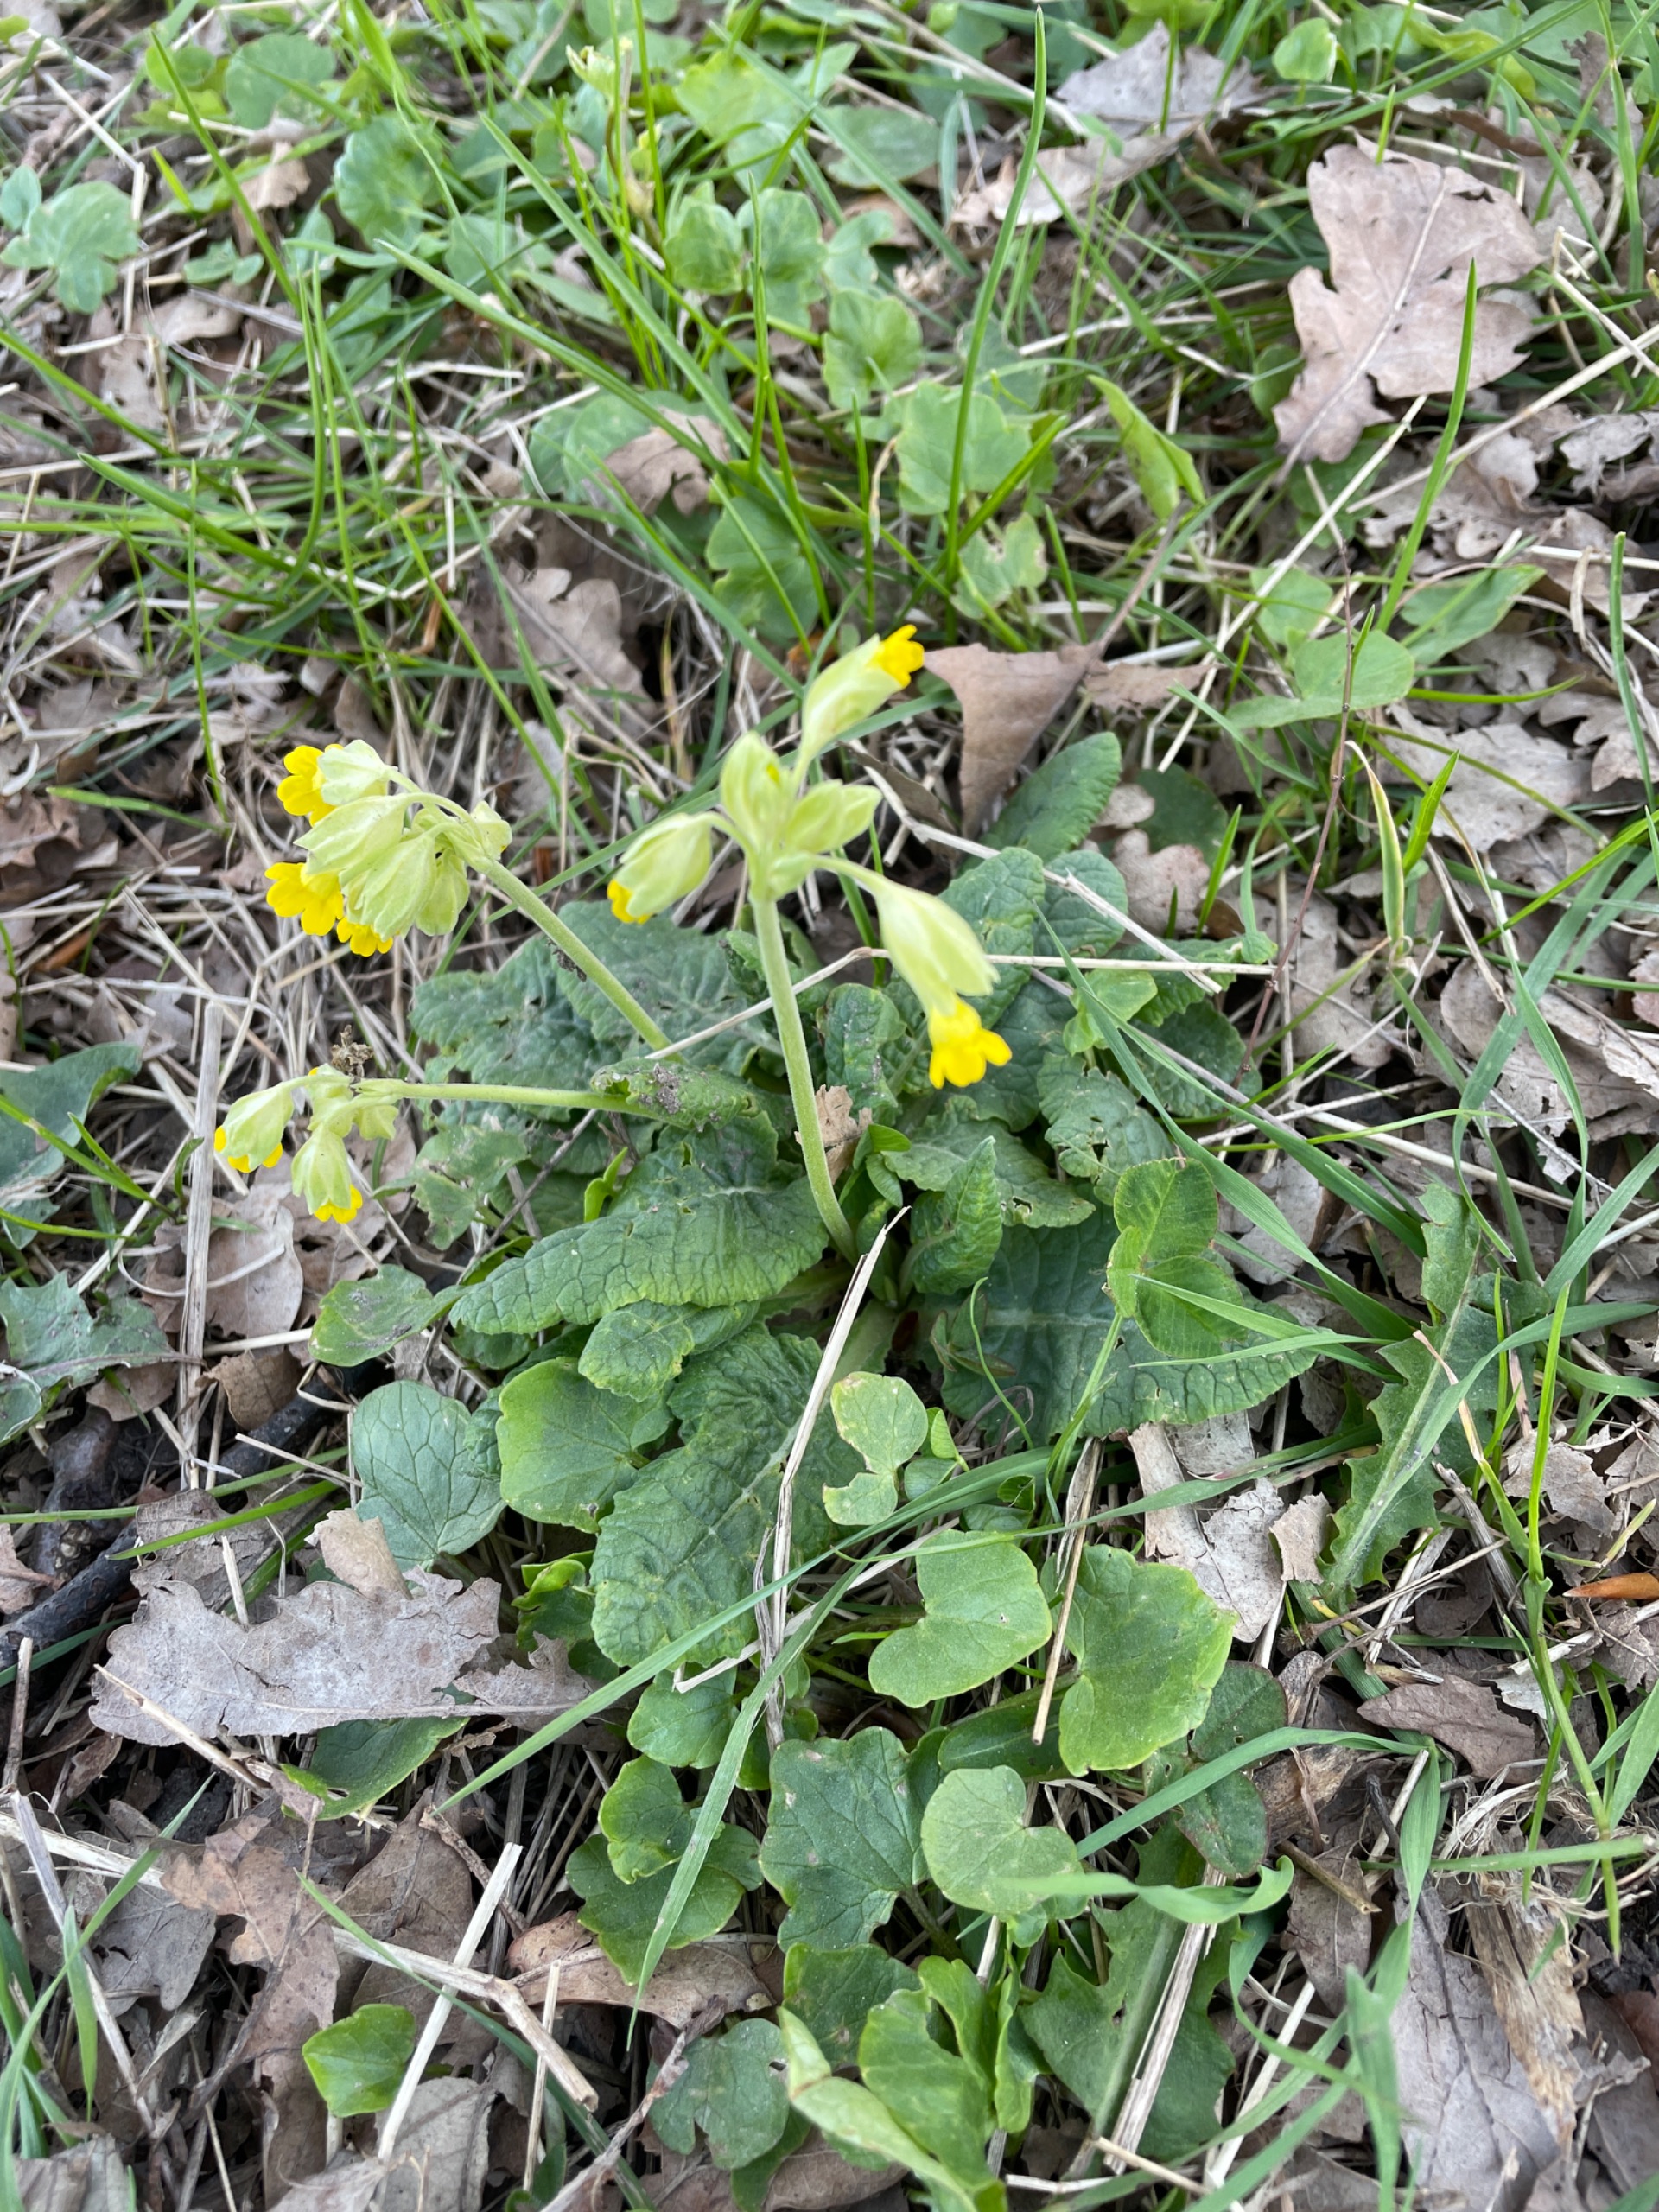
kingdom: Plantae
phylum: Tracheophyta
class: Magnoliopsida
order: Ericales
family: Primulaceae
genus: Primula
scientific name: Primula veris
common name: Hulkravet kodriver
